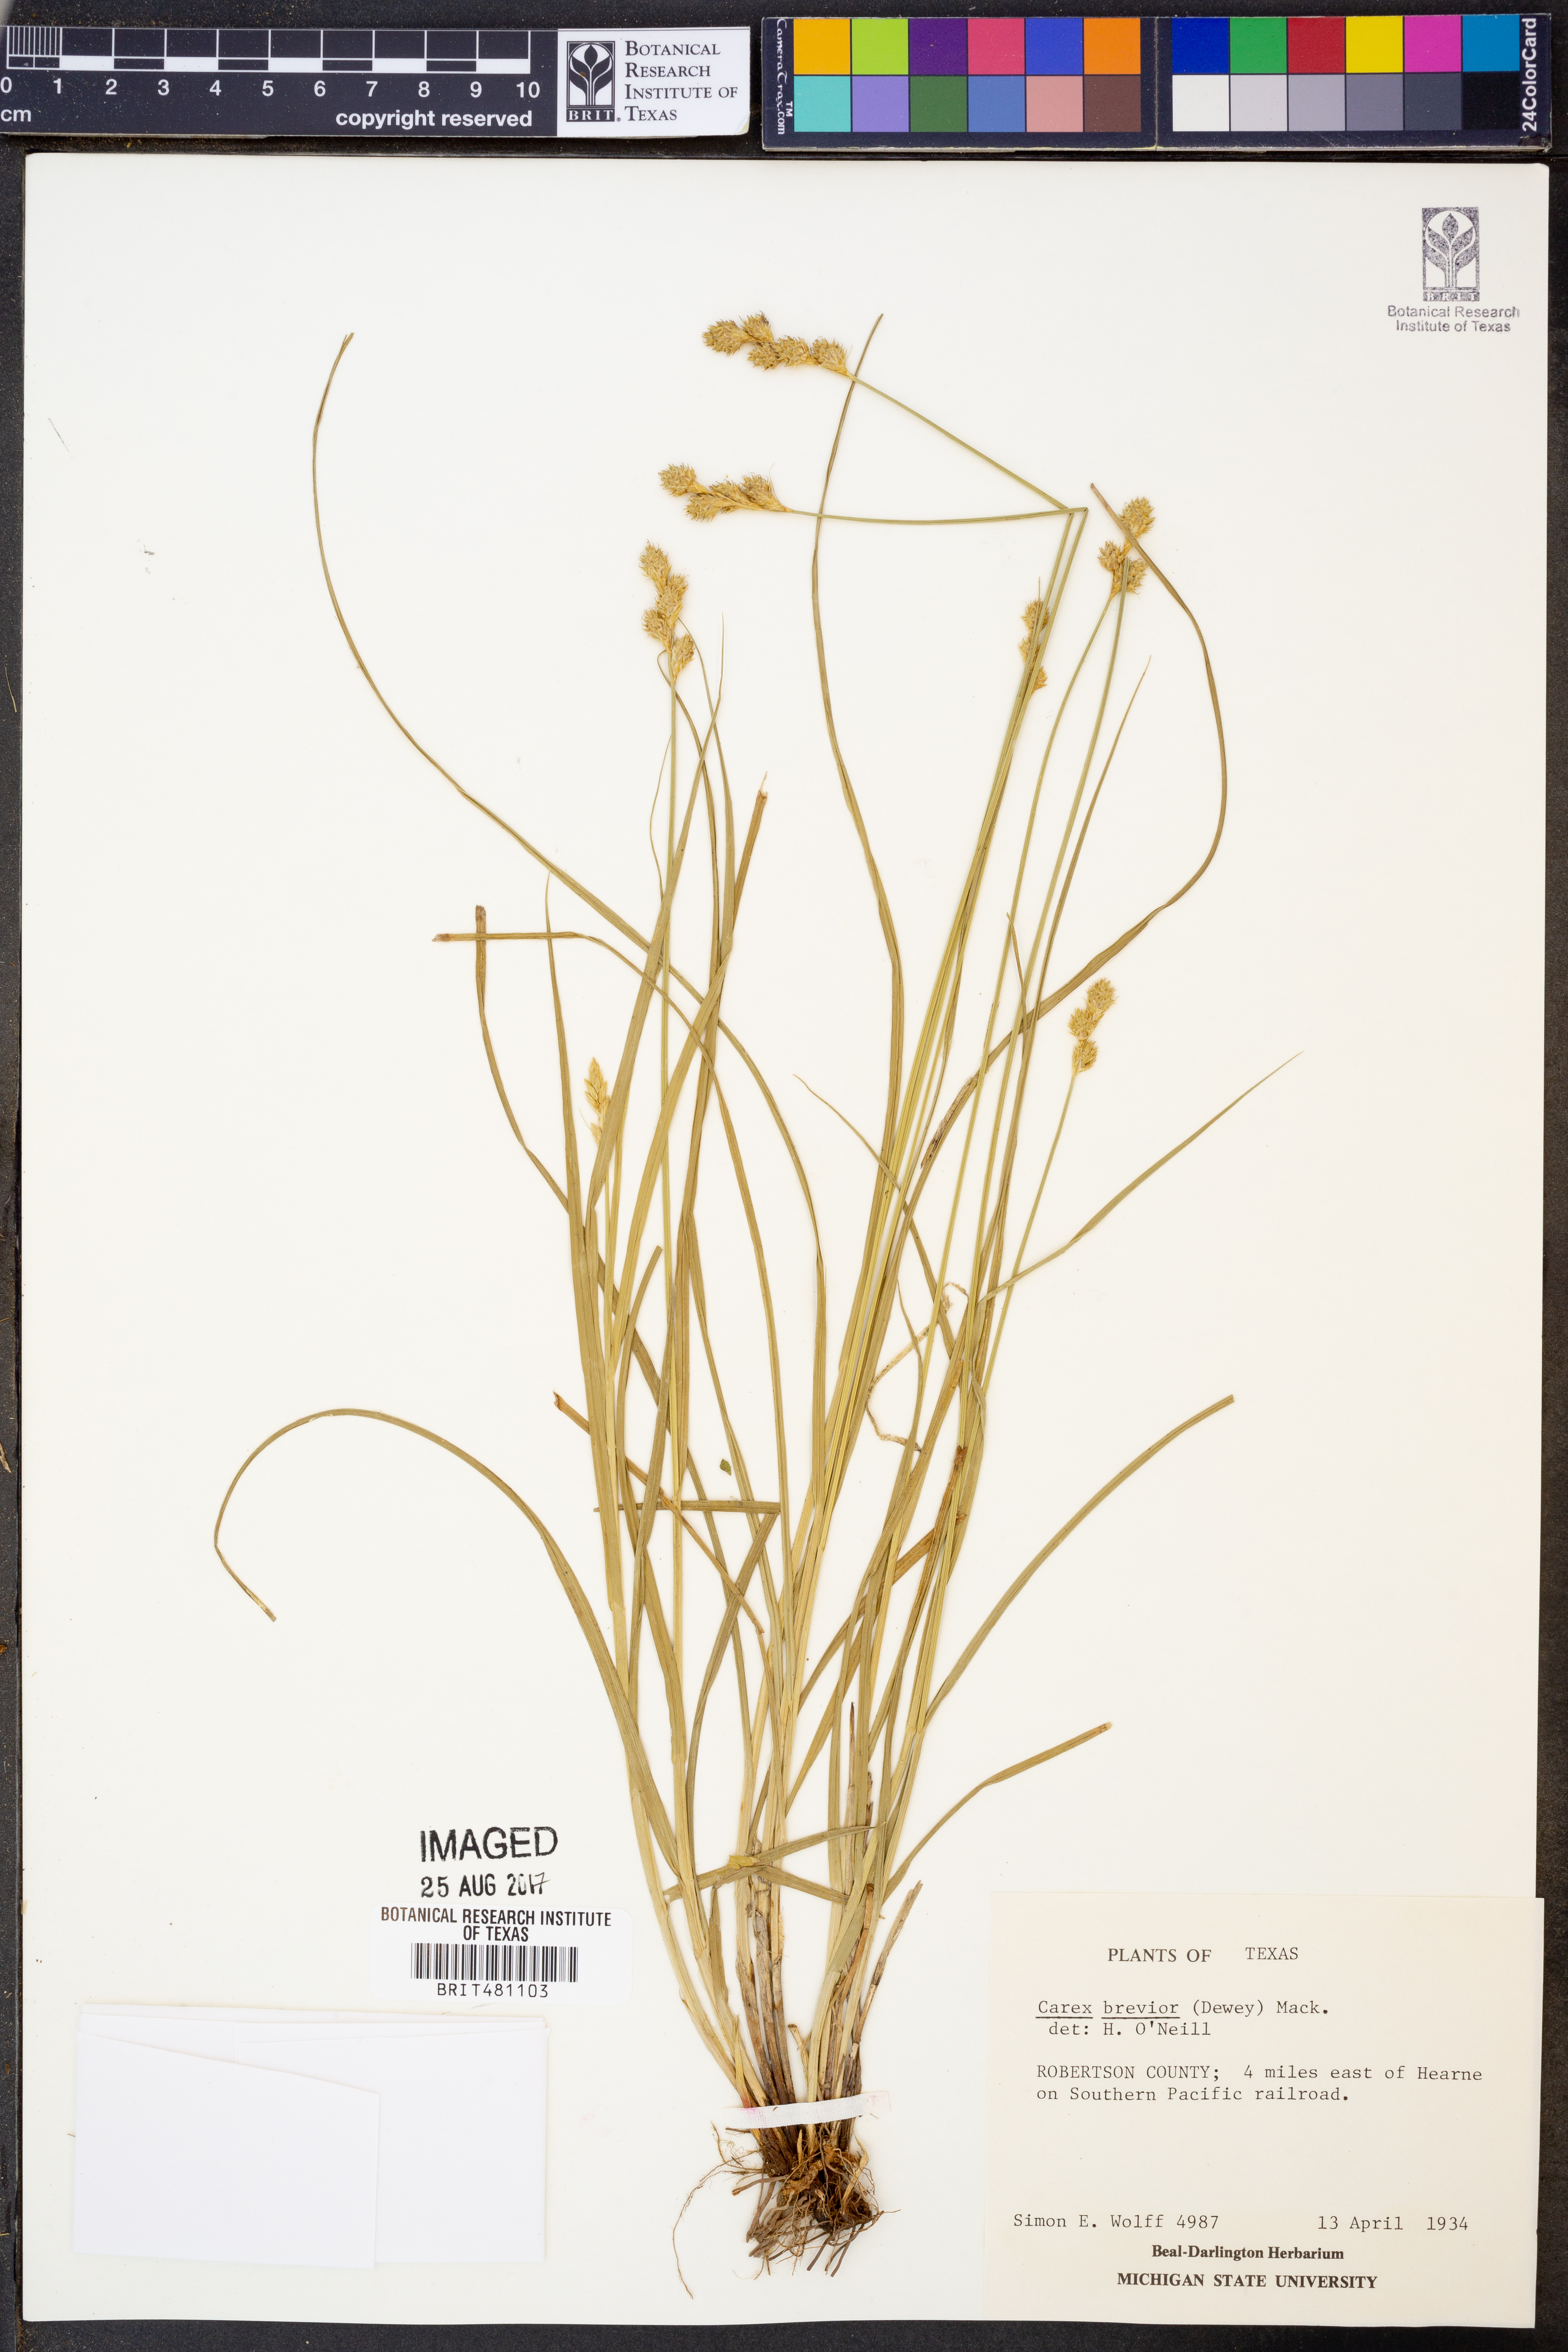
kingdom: Plantae
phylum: Tracheophyta
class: Liliopsida
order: Poales
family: Cyperaceae
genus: Carex
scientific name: Carex brevior
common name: Brevior sedge
